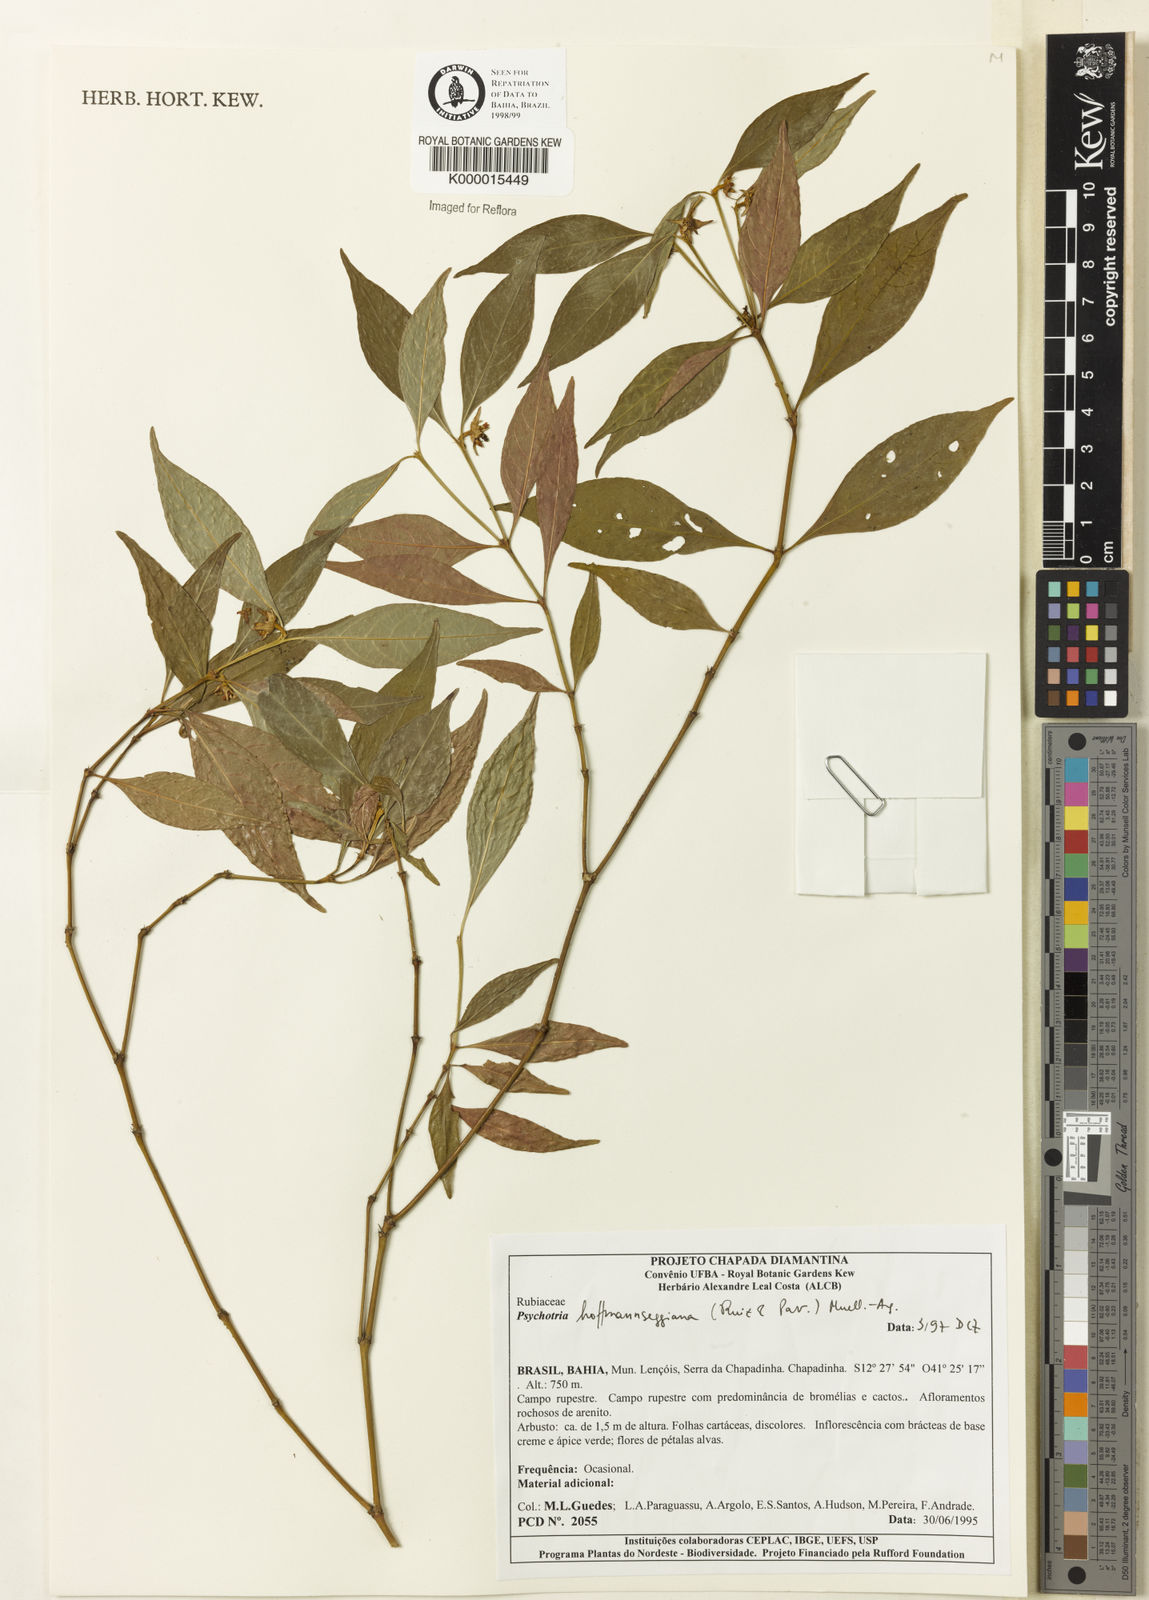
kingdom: Plantae
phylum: Tracheophyta
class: Magnoliopsida
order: Gentianales
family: Rubiaceae
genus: Psychotria
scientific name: Psychotria
